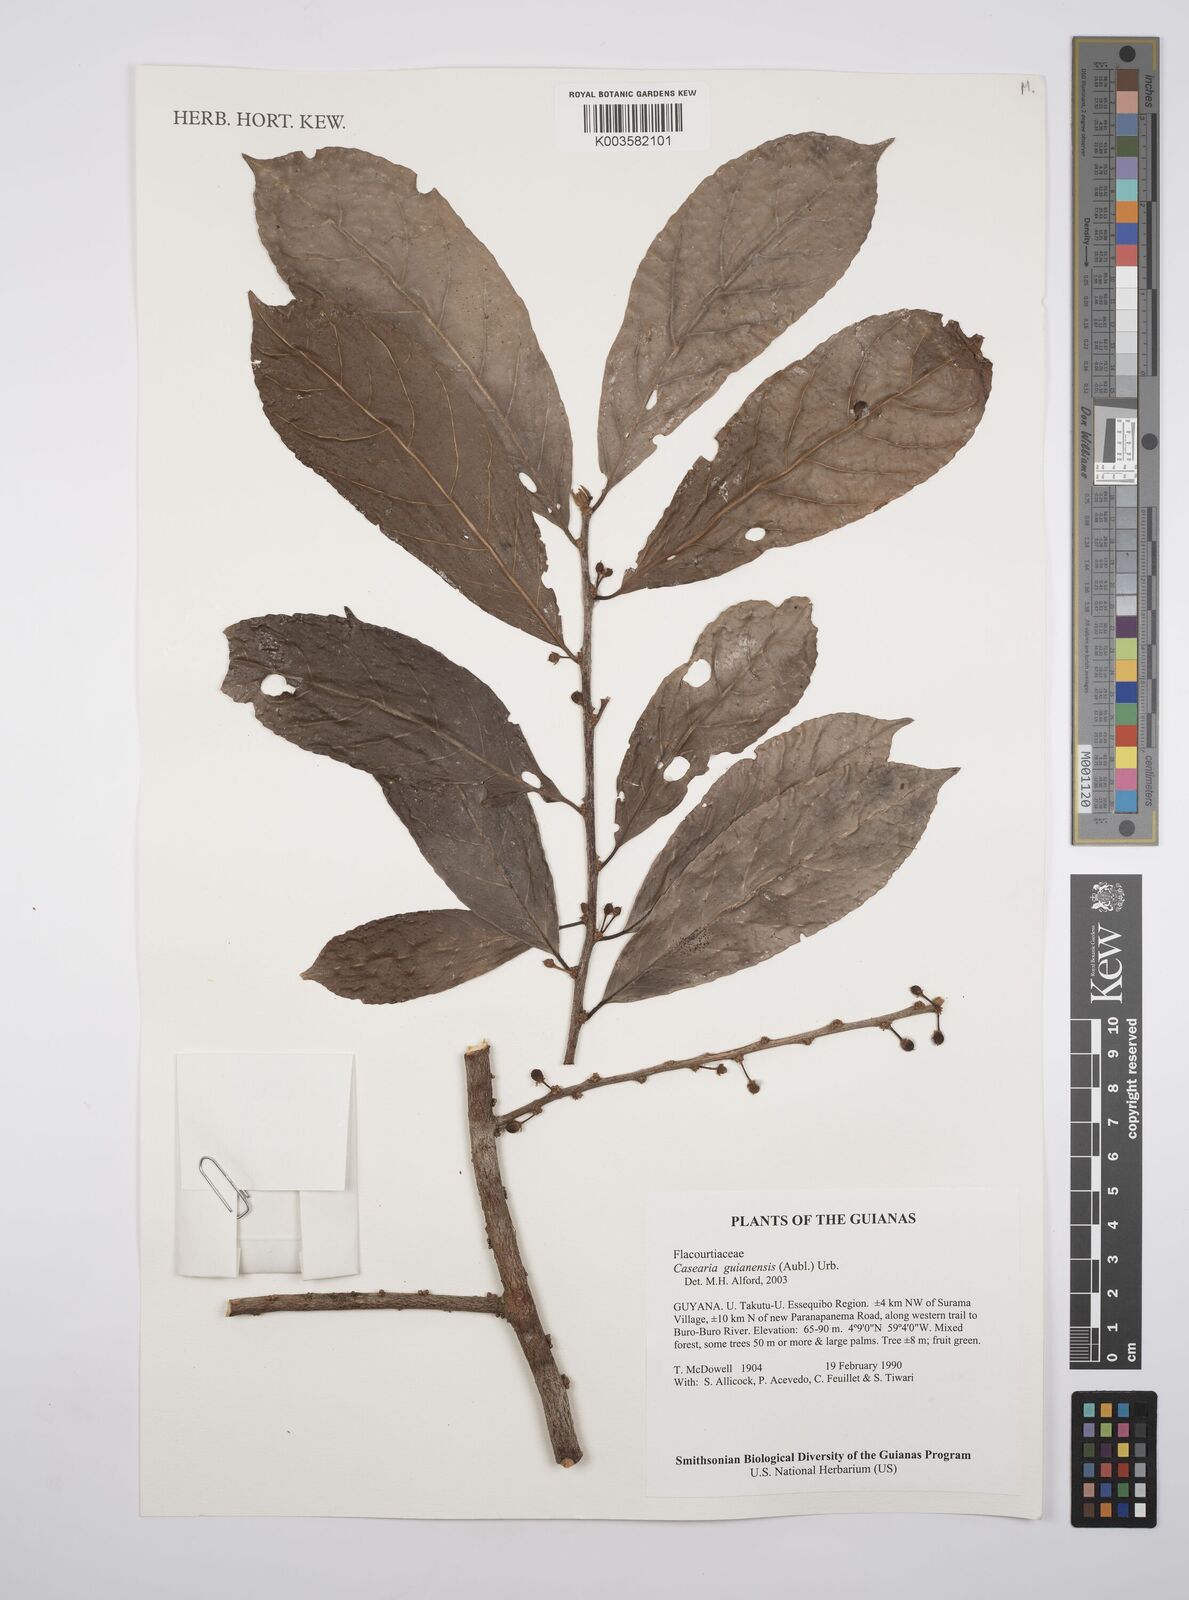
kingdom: Plantae
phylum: Tracheophyta
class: Magnoliopsida
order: Malpighiales
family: Salicaceae
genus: Casearia
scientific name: Casearia guianensis
